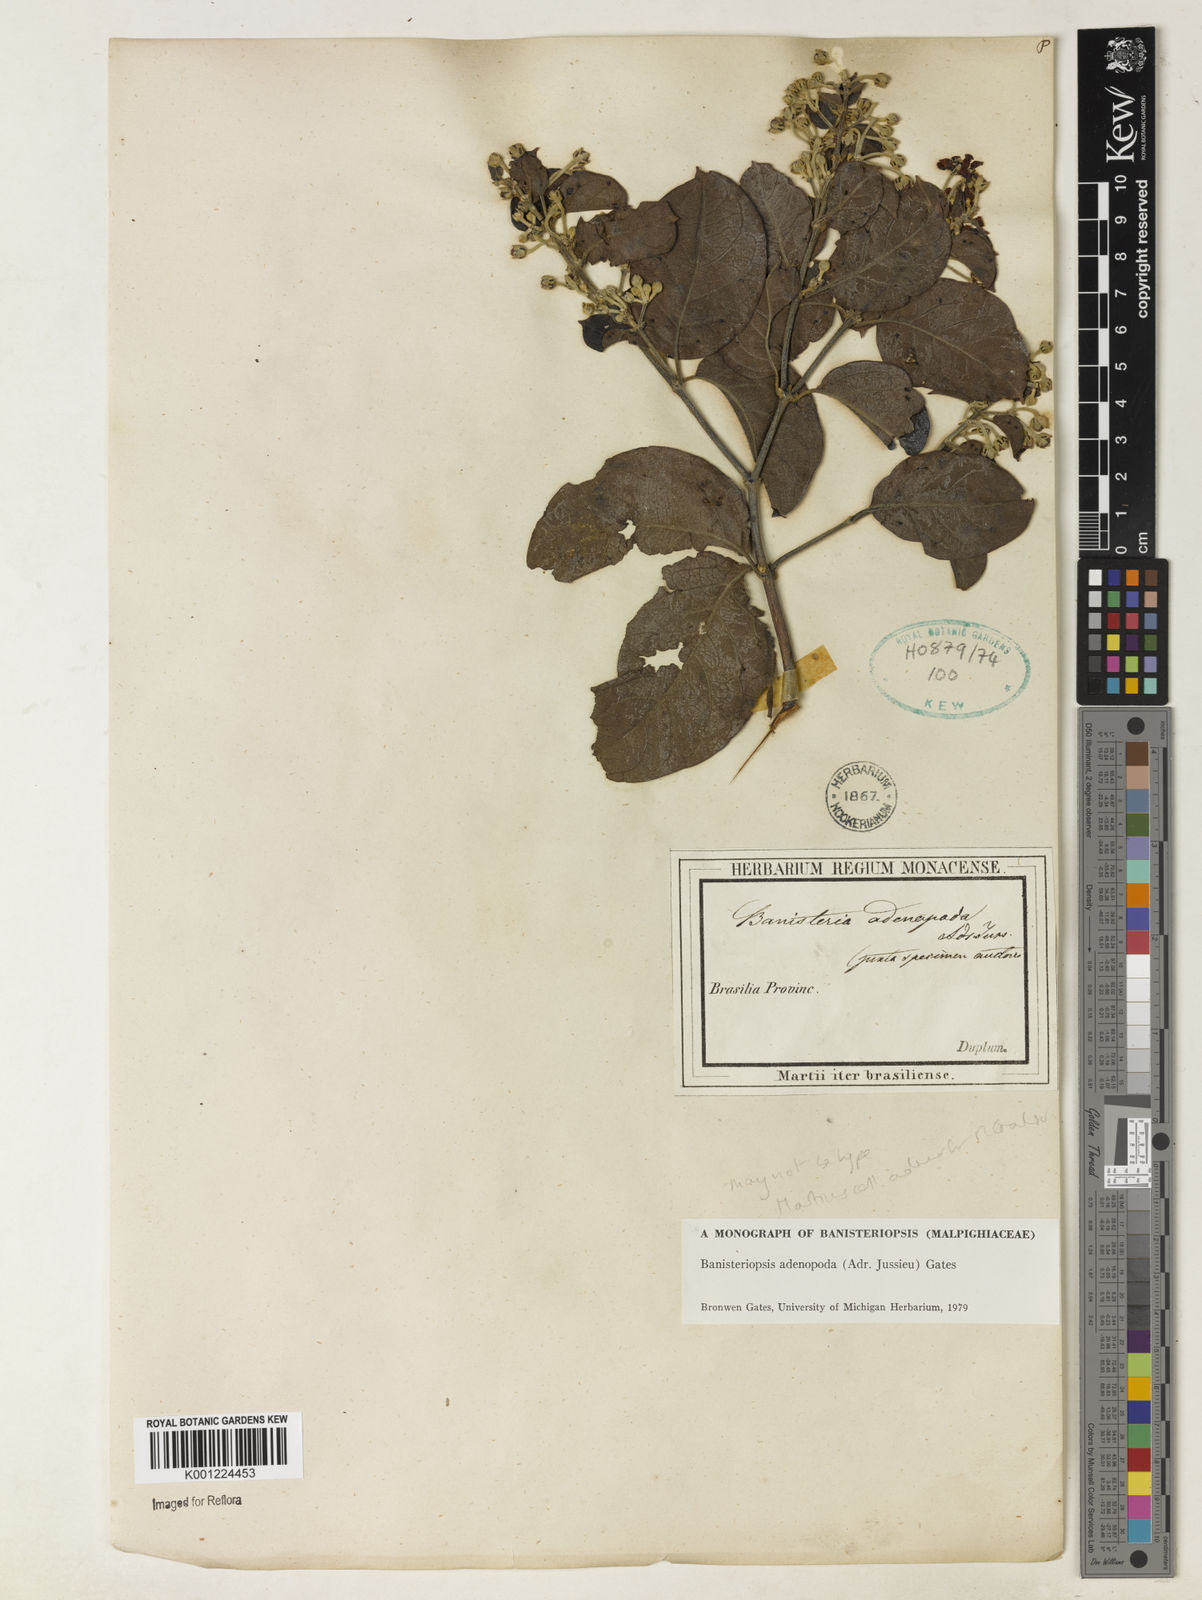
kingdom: Plantae
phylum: Tracheophyta
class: Magnoliopsida
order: Malpighiales
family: Malpighiaceae
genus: Banisteriopsis
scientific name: Banisteriopsis adenopoda
